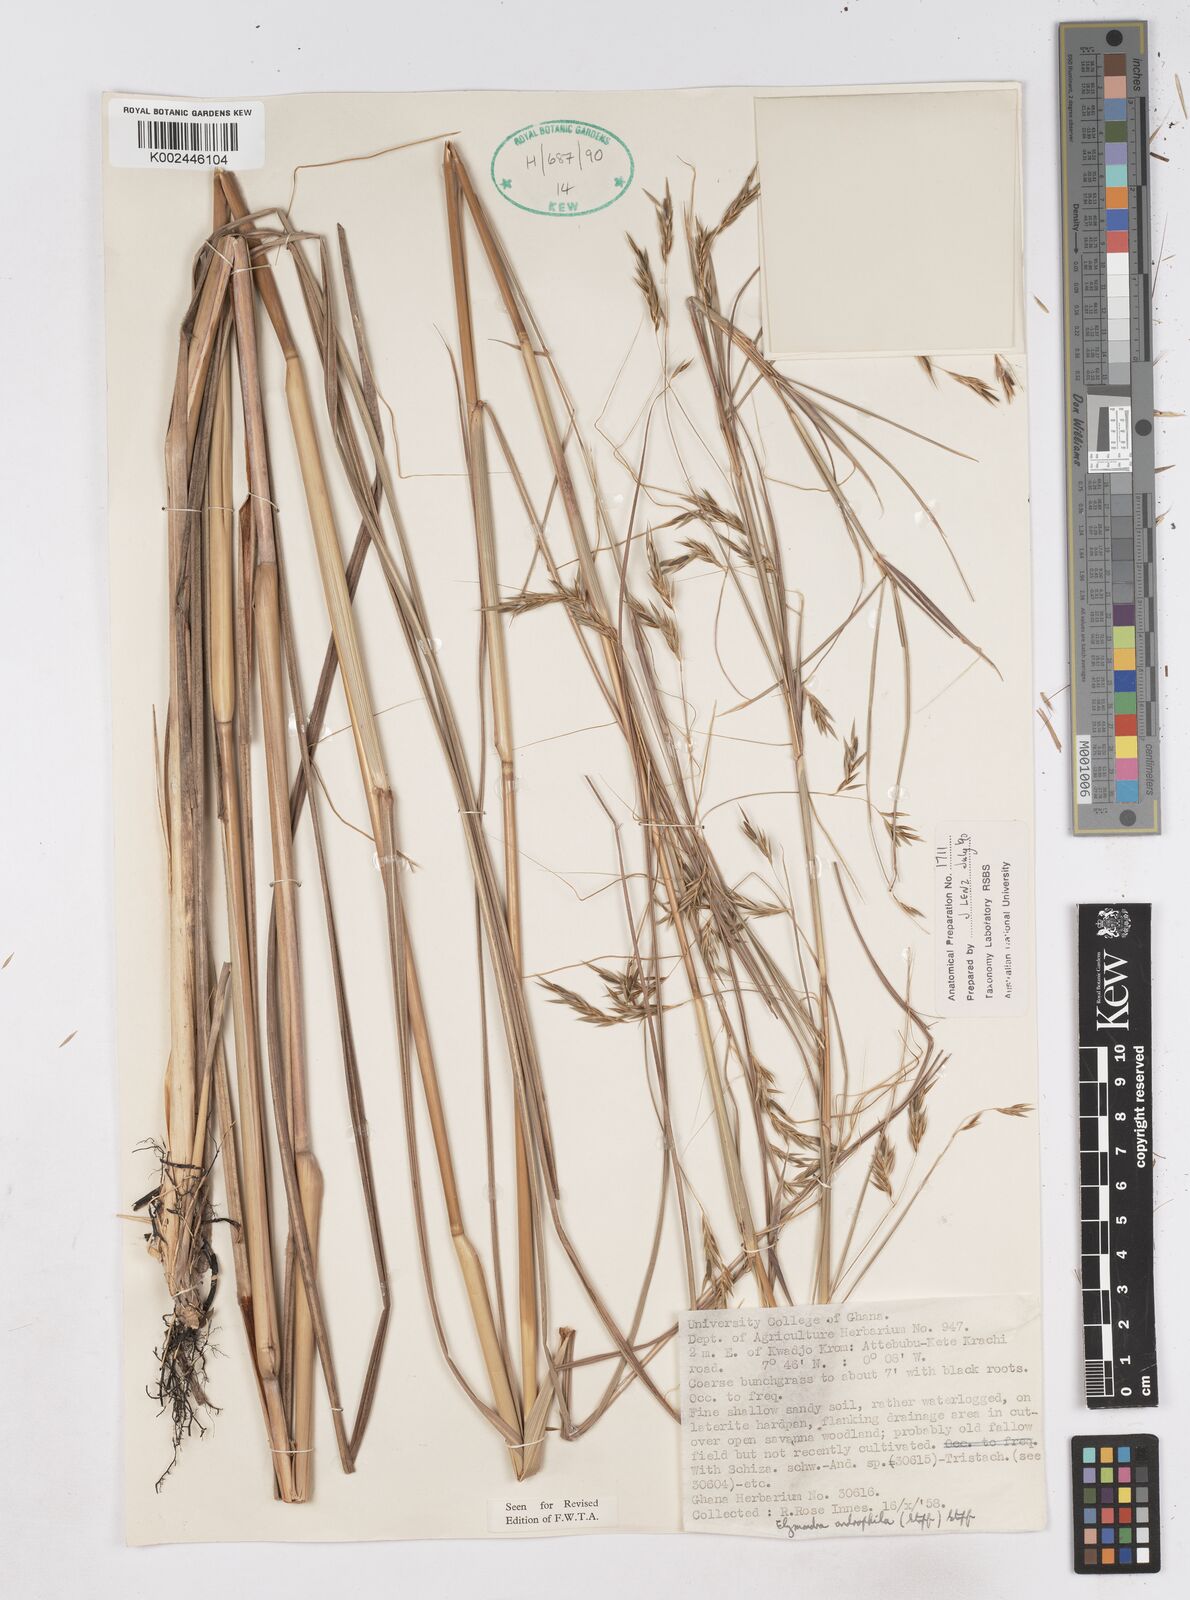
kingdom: Plantae
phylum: Tracheophyta
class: Liliopsida
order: Poales
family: Poaceae
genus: Elymandra
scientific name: Elymandra androphila
